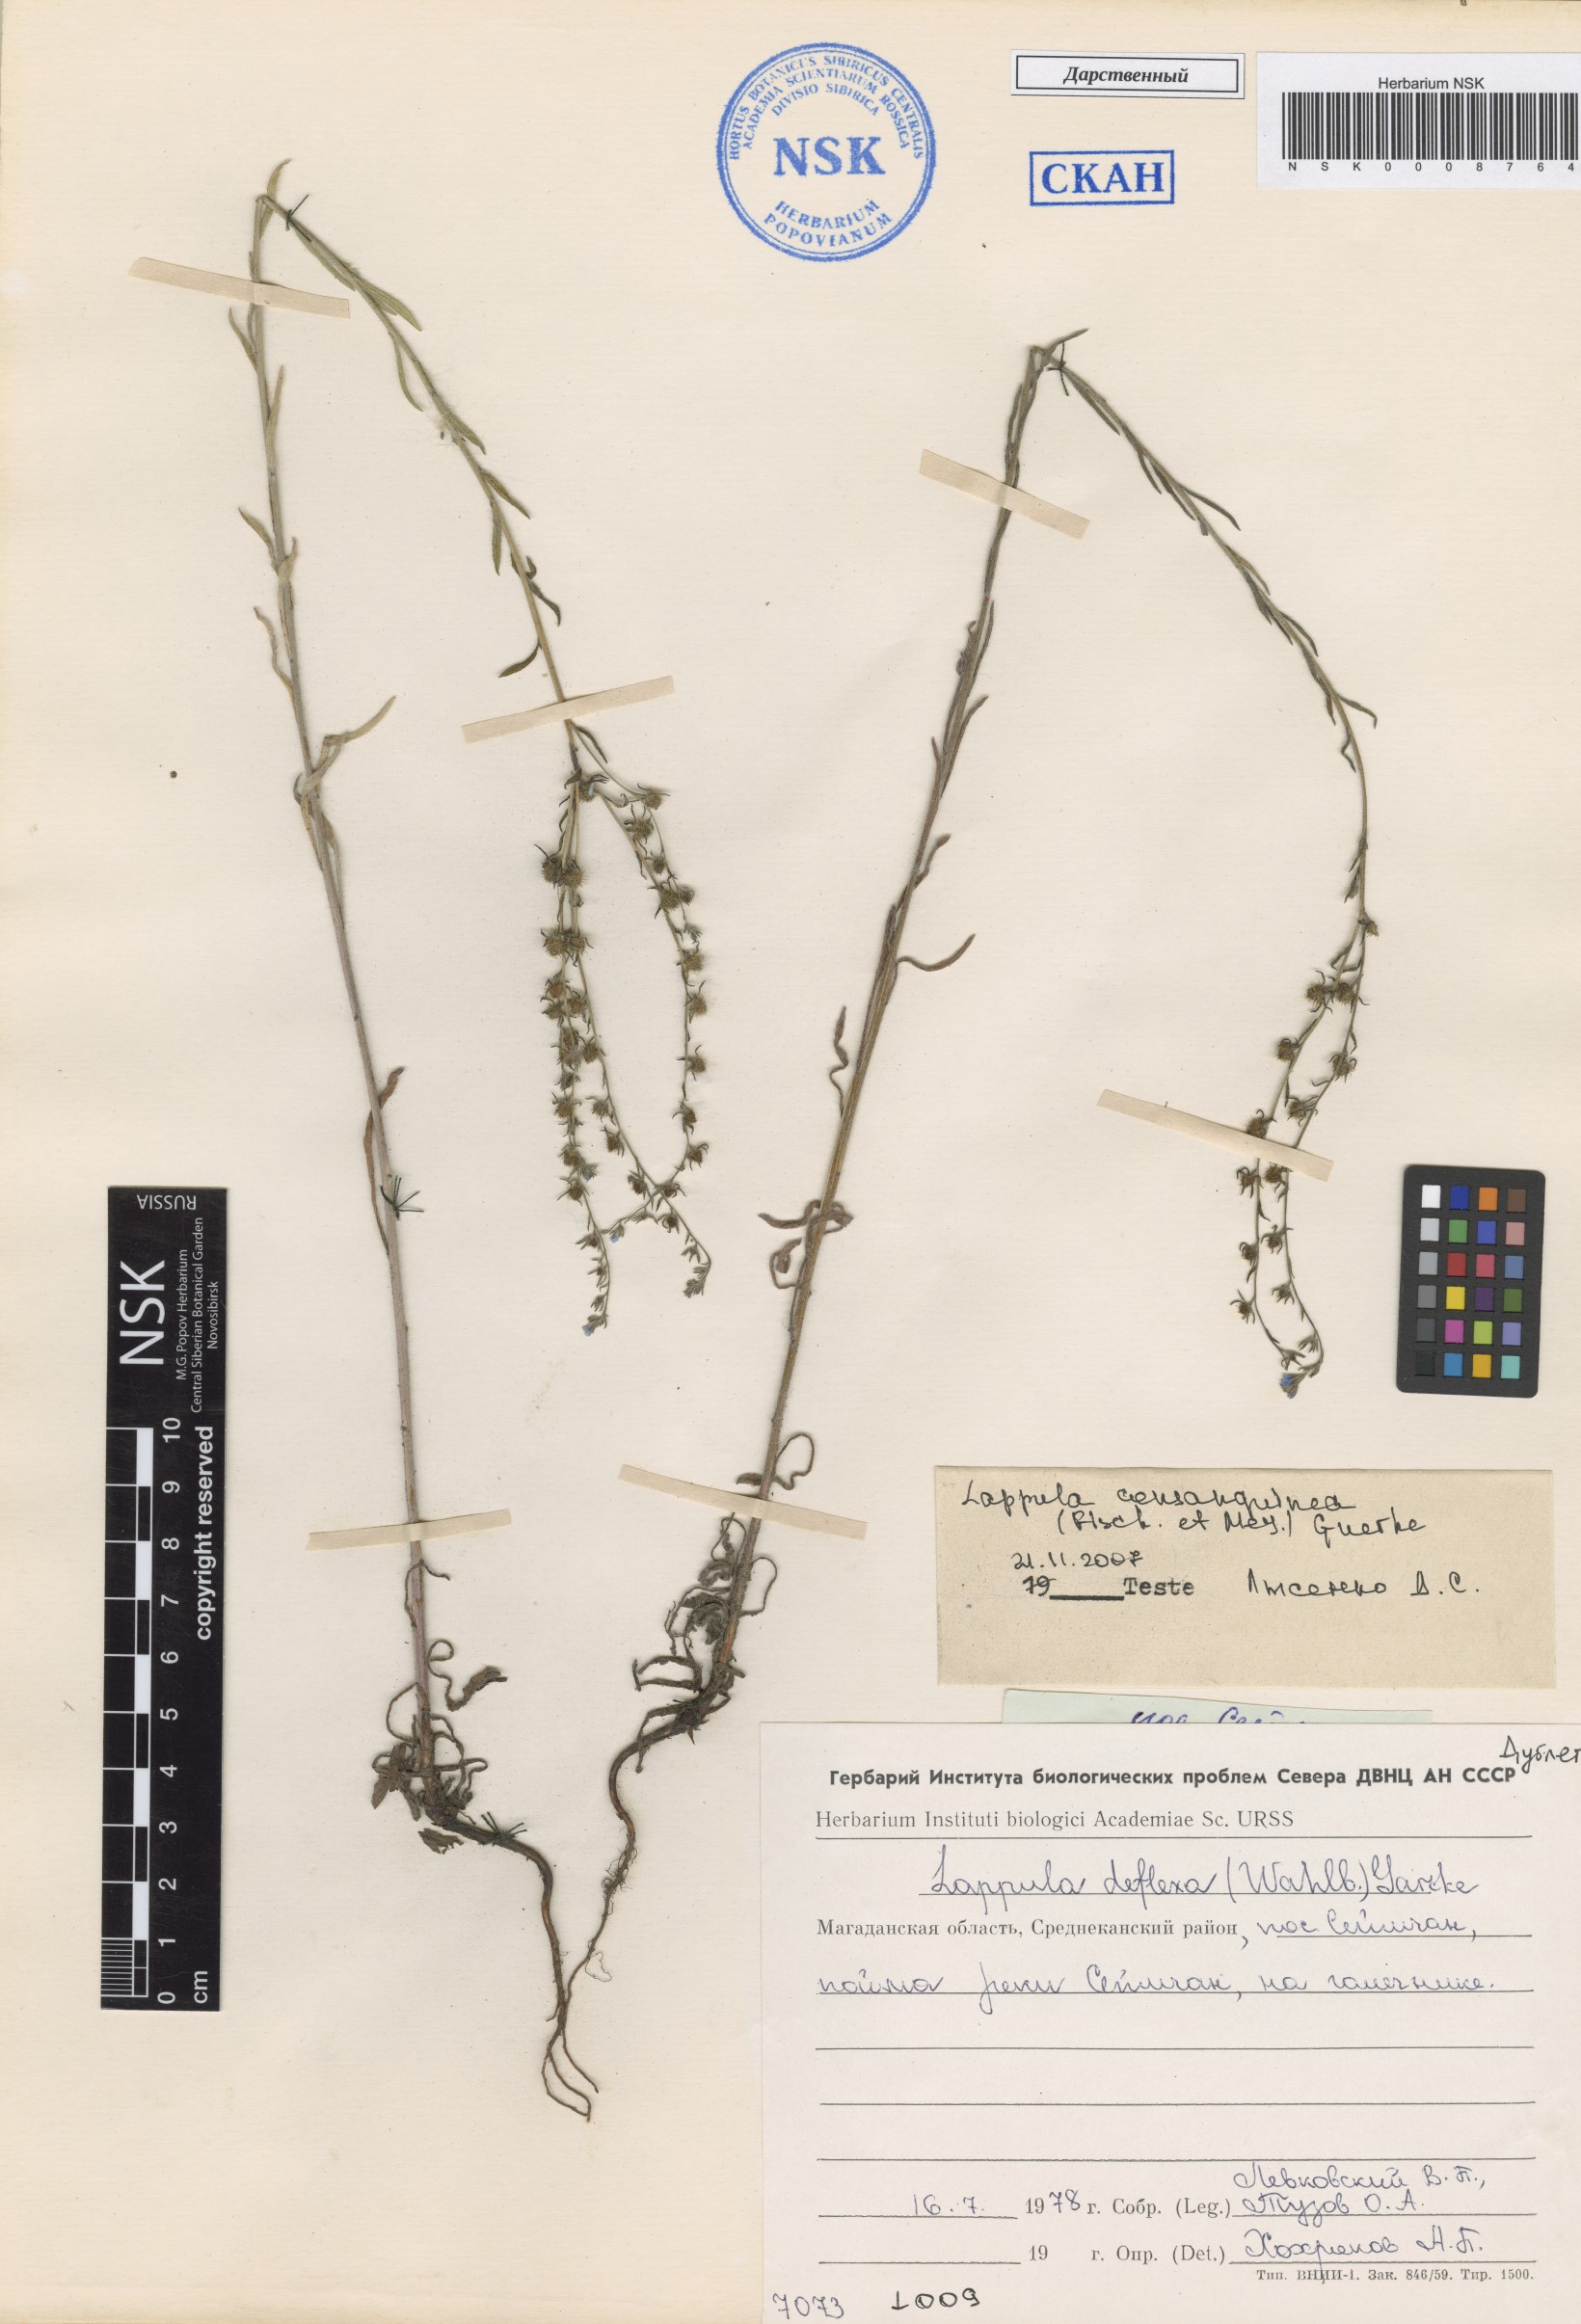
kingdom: Plantae
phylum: Tracheophyta
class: Magnoliopsida
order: Boraginales
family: Boraginaceae
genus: Lappula
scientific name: Lappula squarrosa
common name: European stickseed
